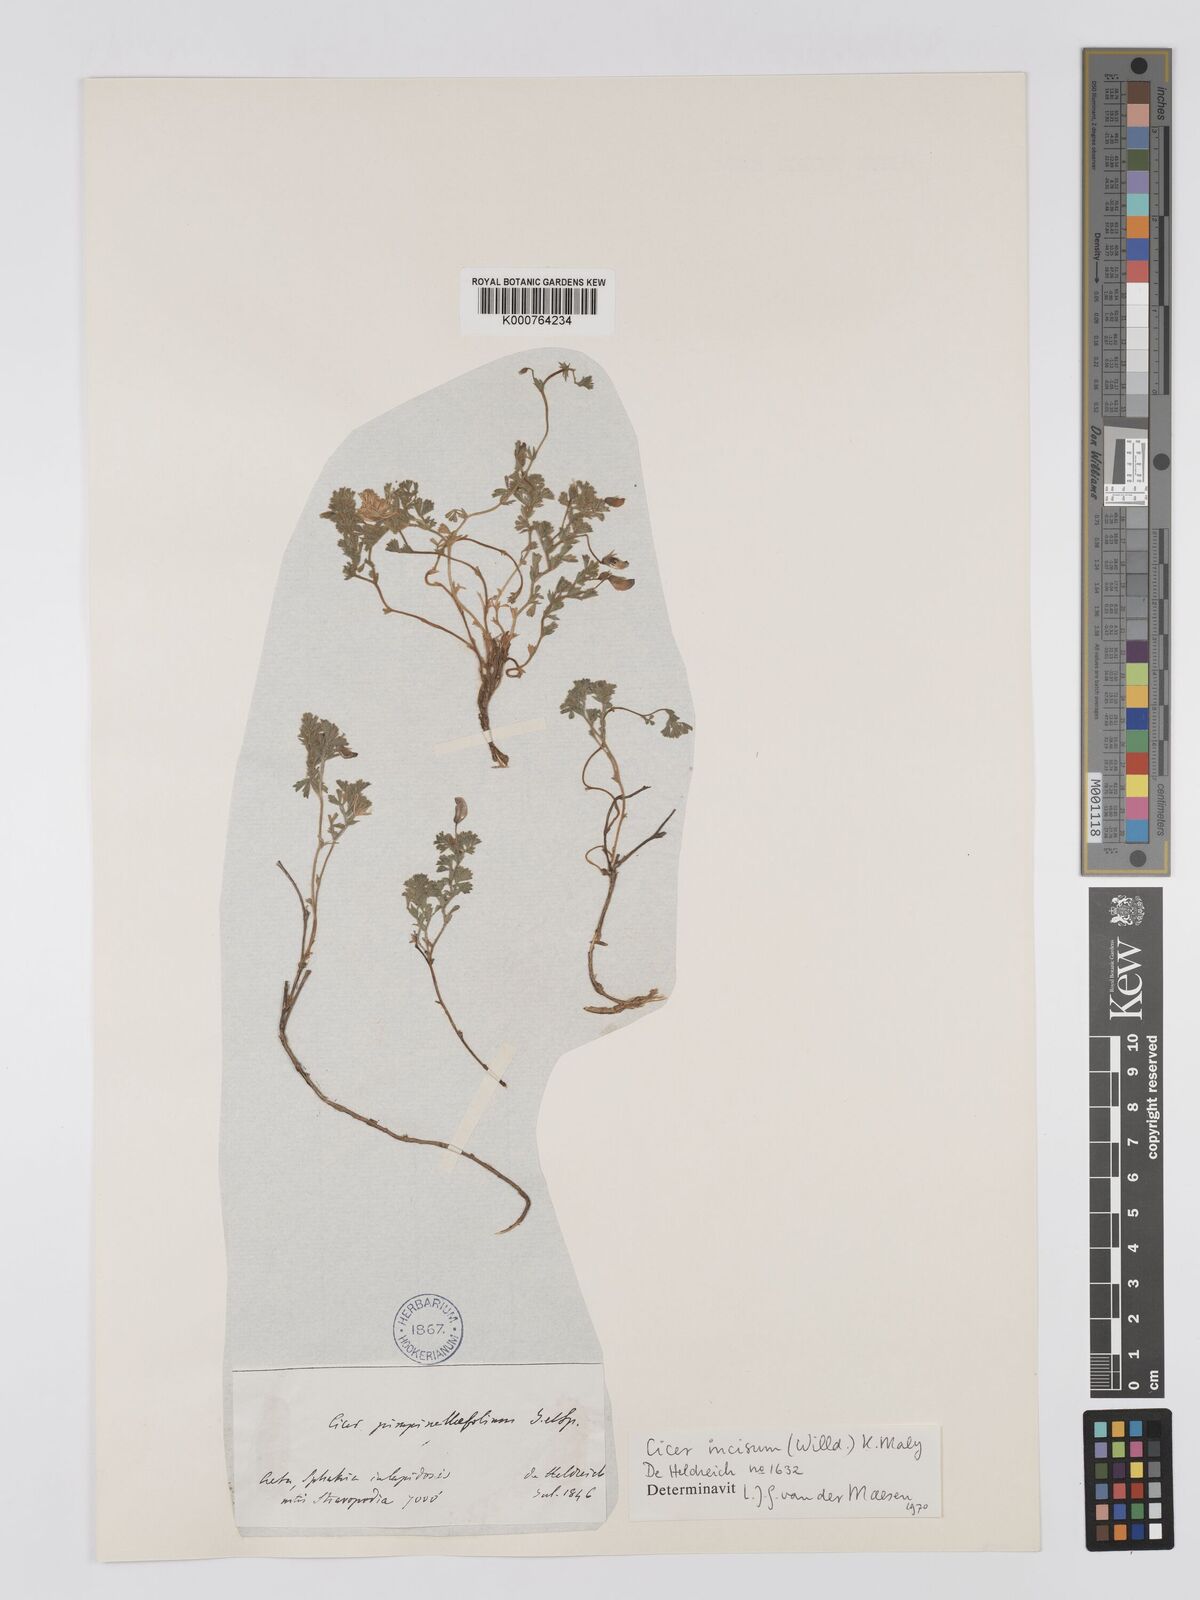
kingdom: Plantae
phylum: Tracheophyta
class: Magnoliopsida
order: Fabales
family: Fabaceae
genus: Cicer
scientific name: Cicer incisum
